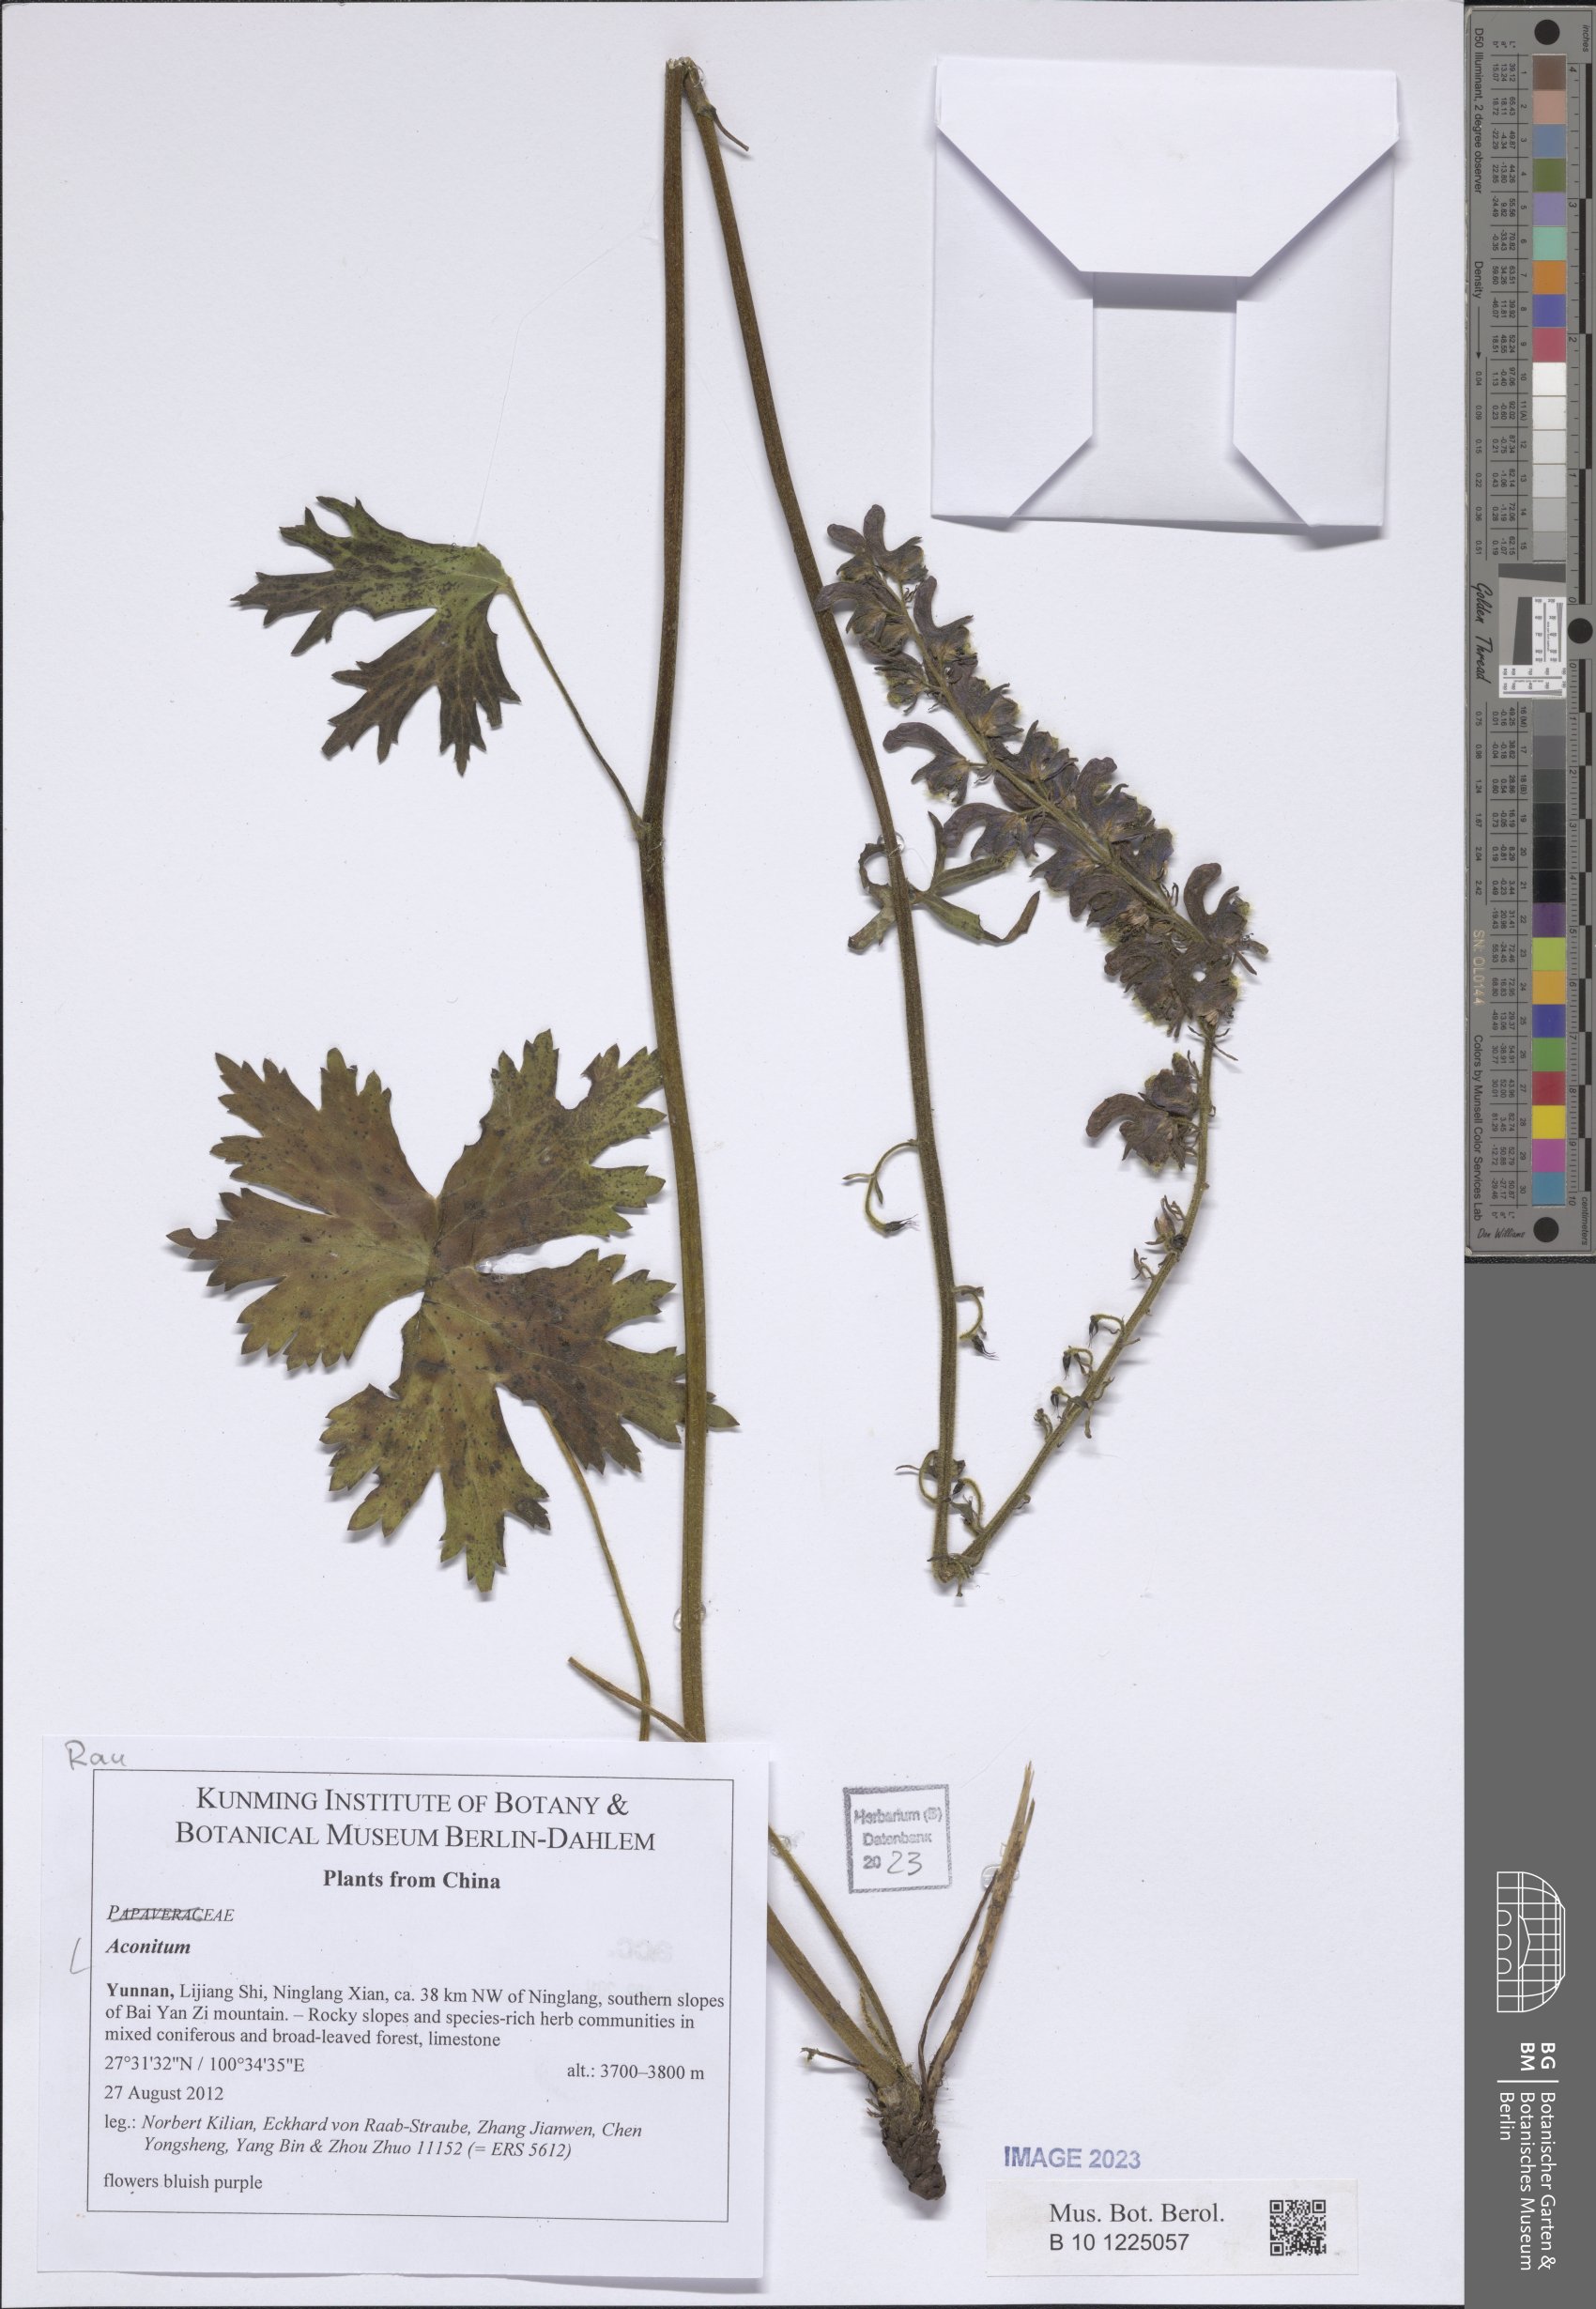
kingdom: Plantae
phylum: Tracheophyta
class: Magnoliopsida
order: Ranunculales
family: Ranunculaceae
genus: Aconitum
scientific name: Aconitum
